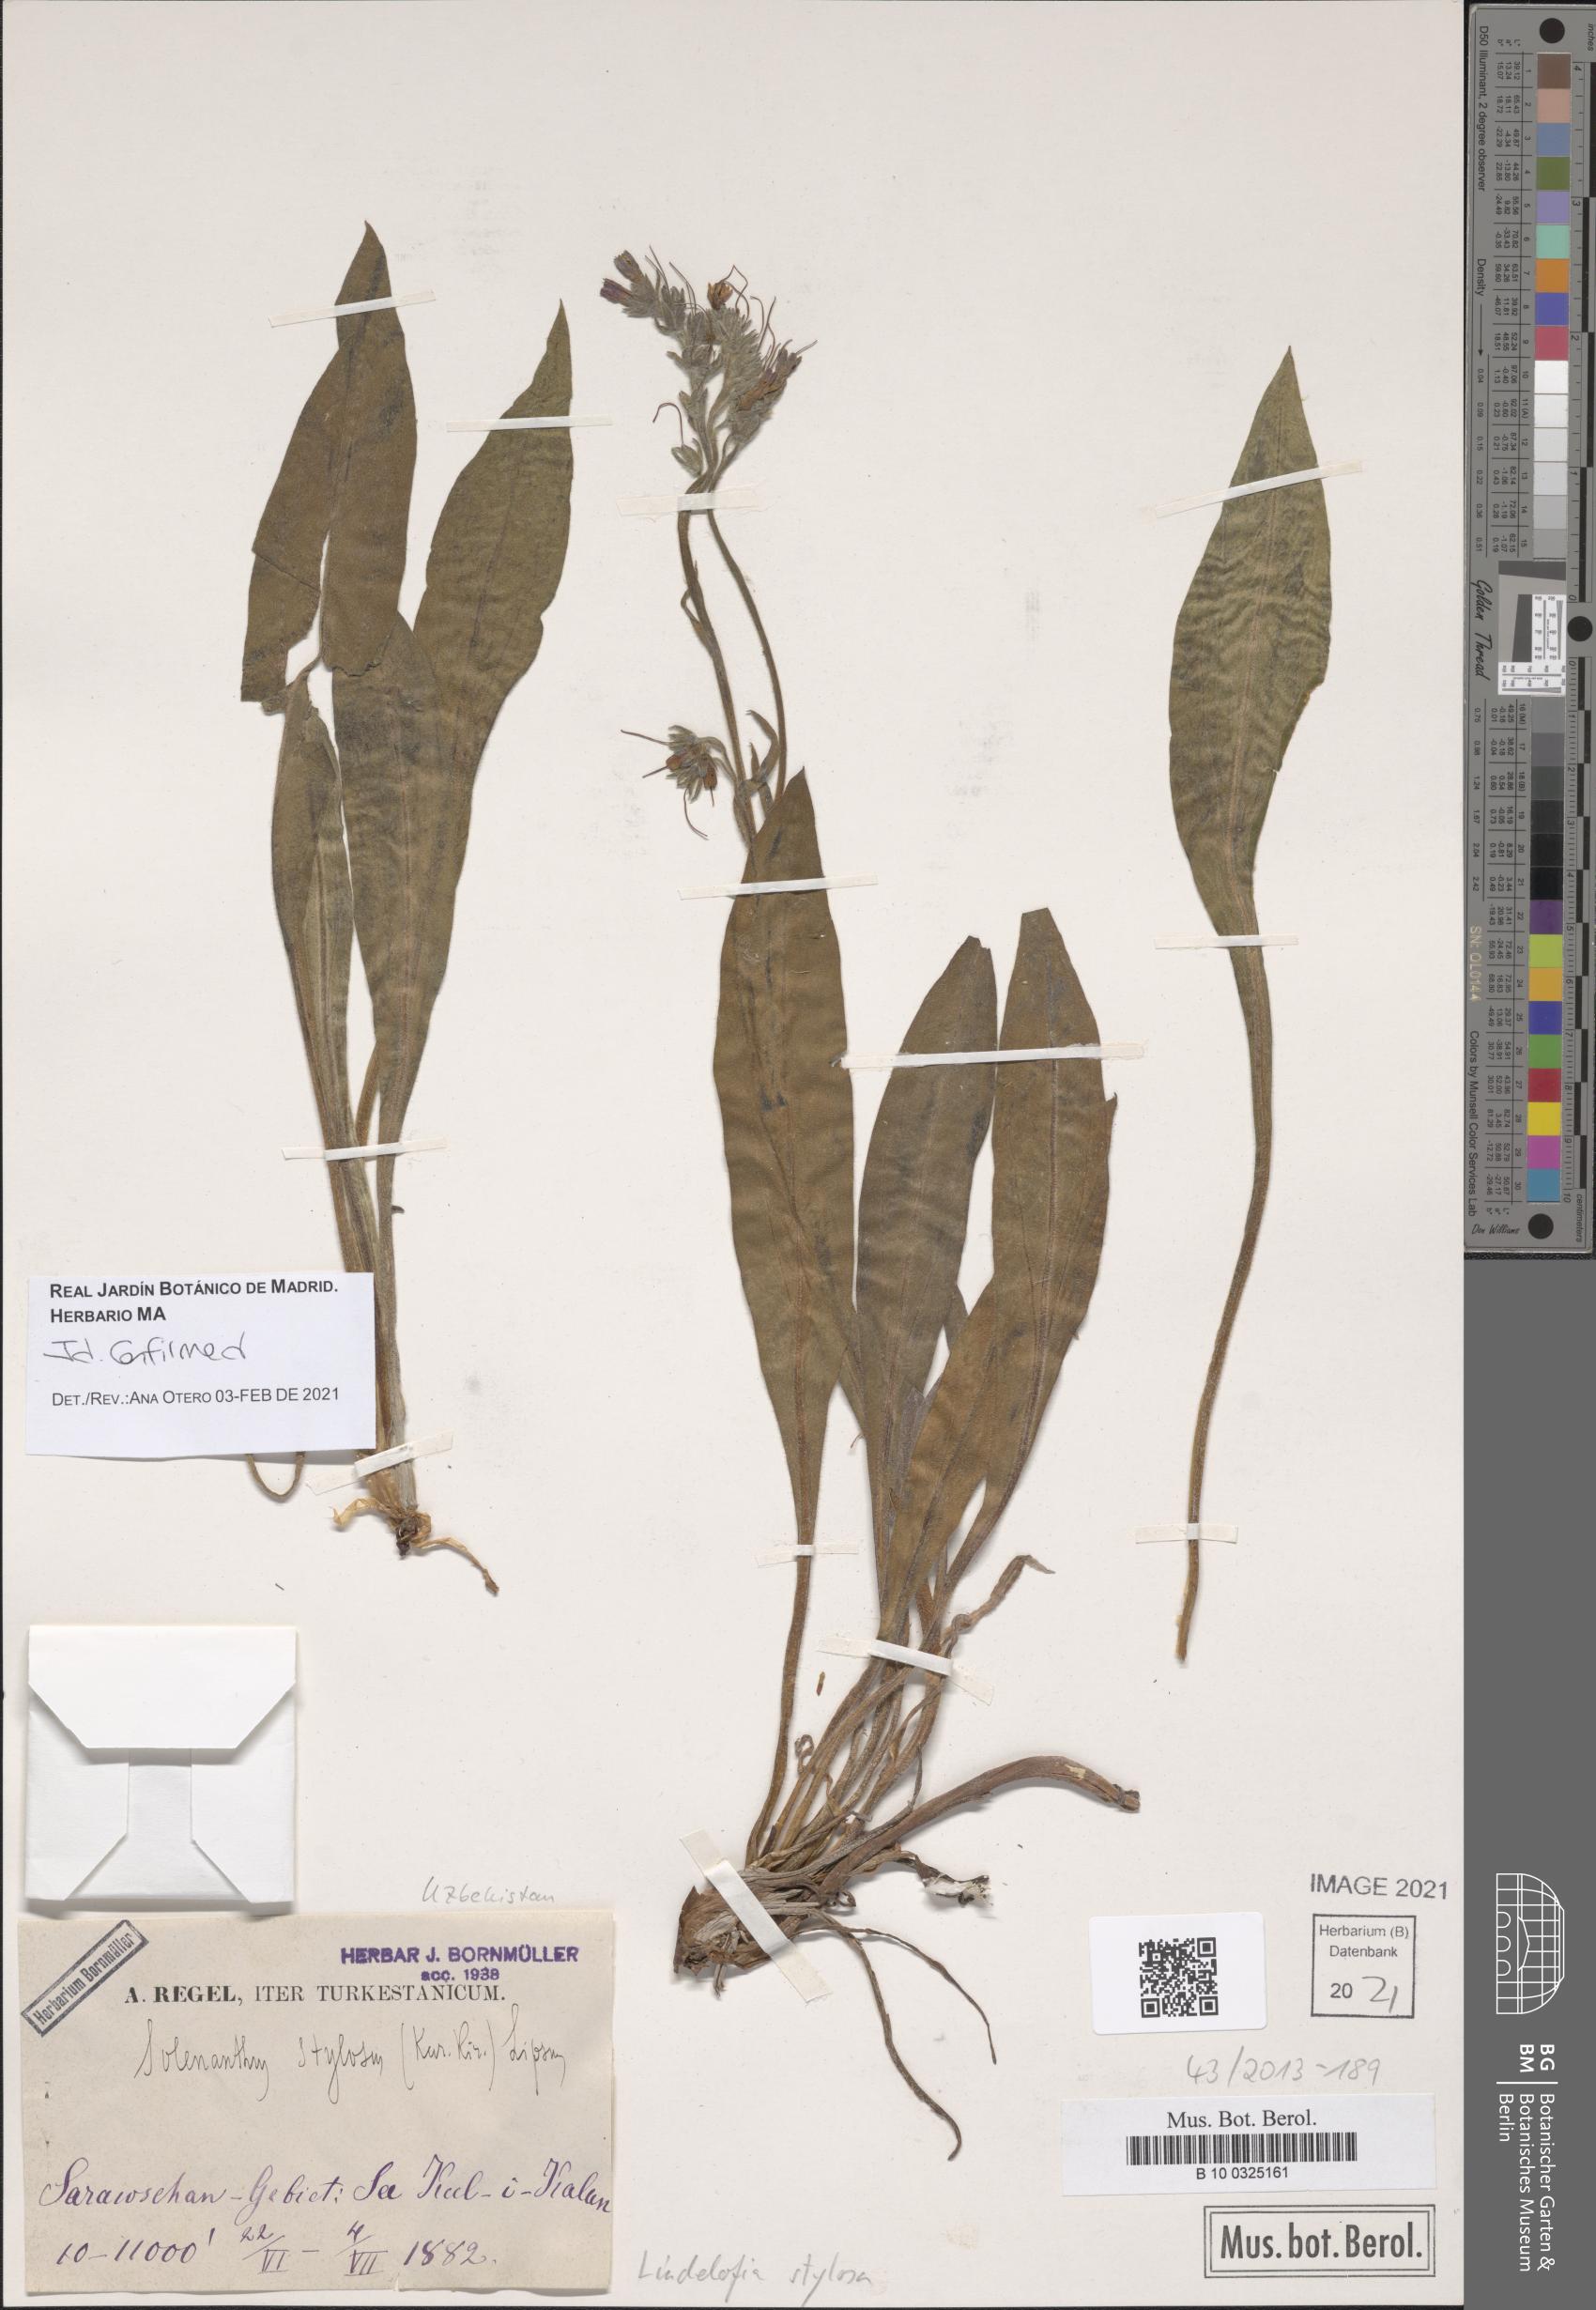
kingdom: Plantae
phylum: Tracheophyta
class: Magnoliopsida
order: Boraginales
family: Boraginaceae
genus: Lindelofia
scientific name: Lindelofia stylosa
